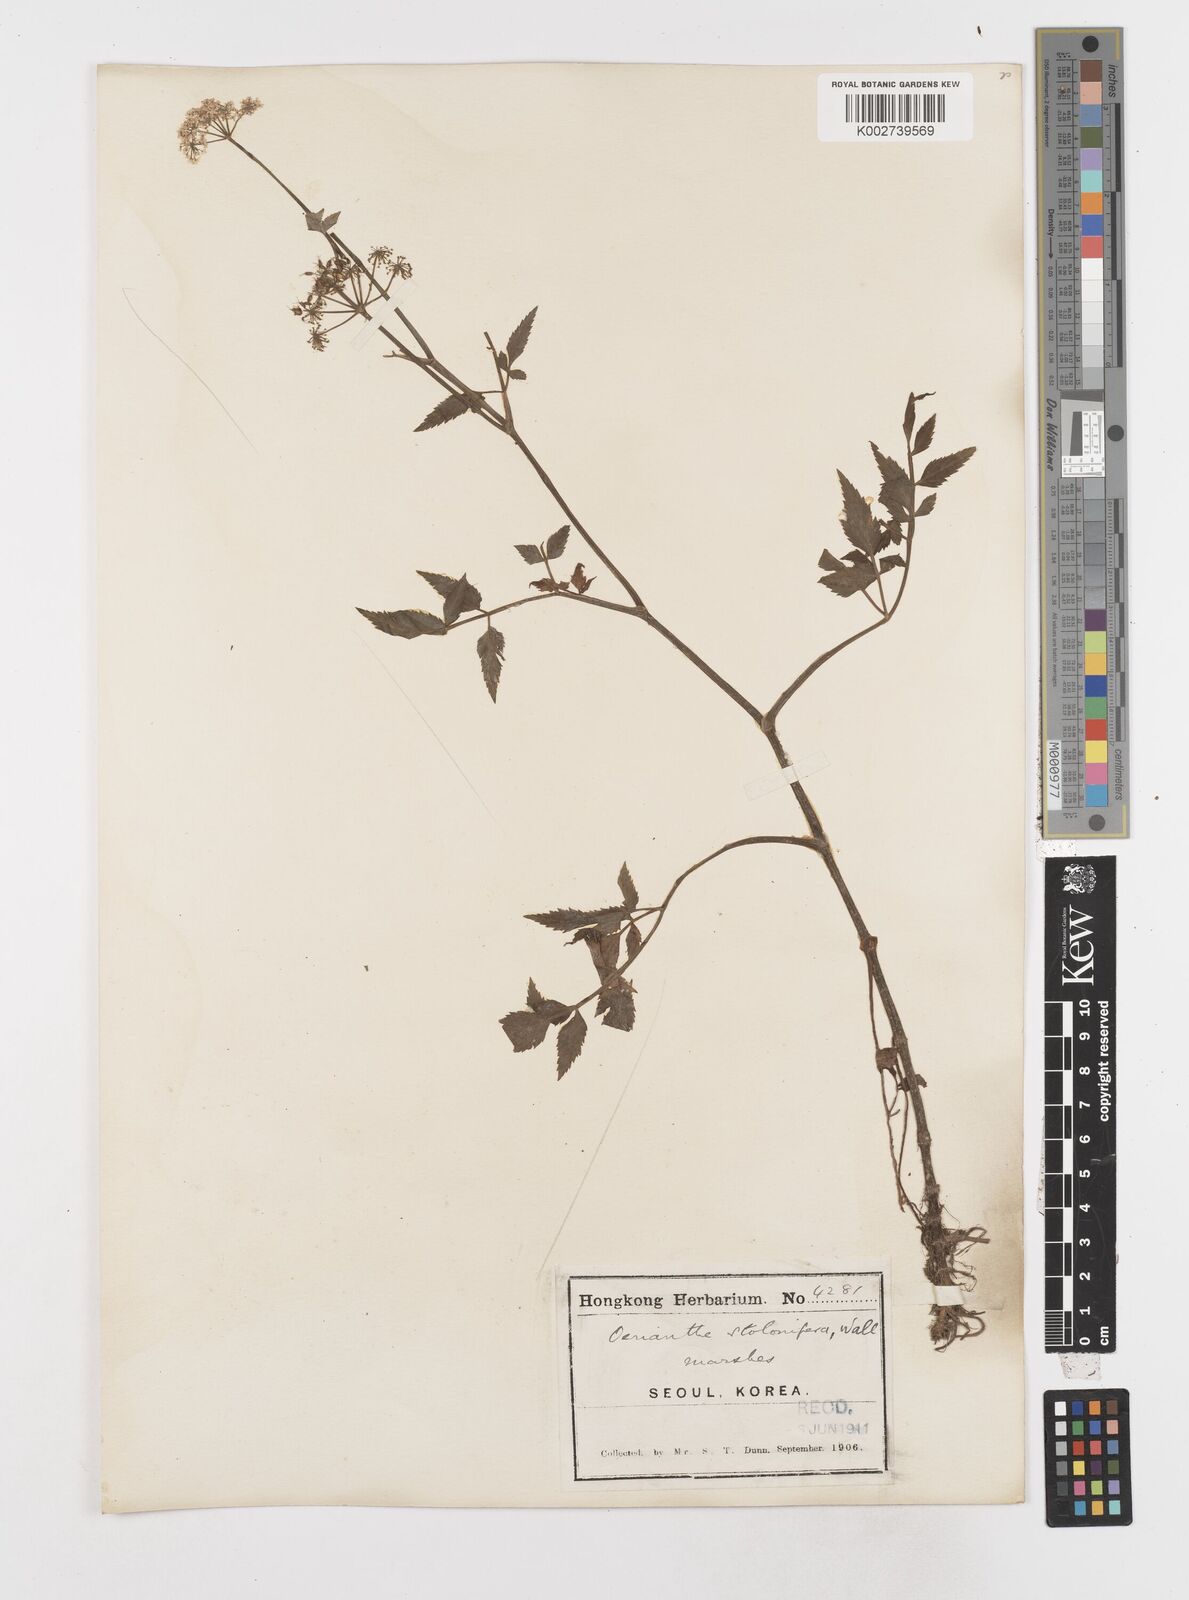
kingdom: Plantae
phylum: Tracheophyta
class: Magnoliopsida
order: Apiales
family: Apiaceae
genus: Oenanthe
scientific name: Oenanthe javanica
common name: Java water-dropwort
